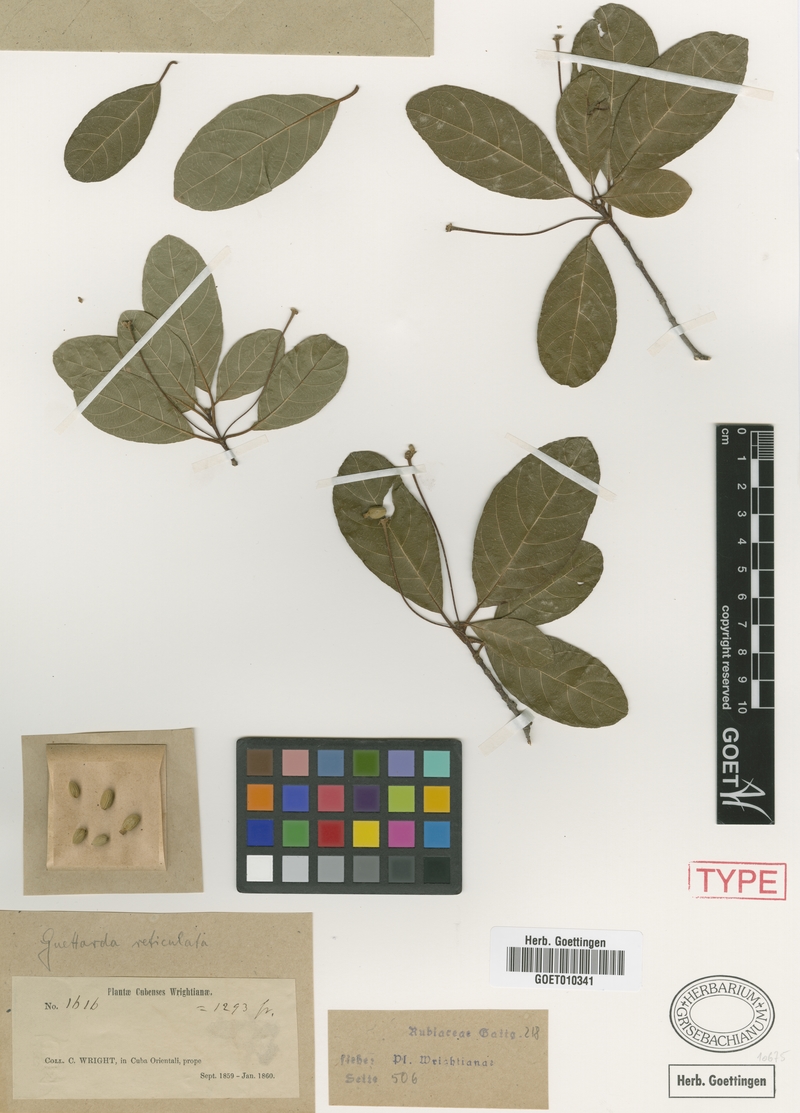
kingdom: Plantae
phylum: Tracheophyta
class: Magnoliopsida
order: Gentianales
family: Rubiaceae
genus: Guettarda
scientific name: Guettarda elliptica
